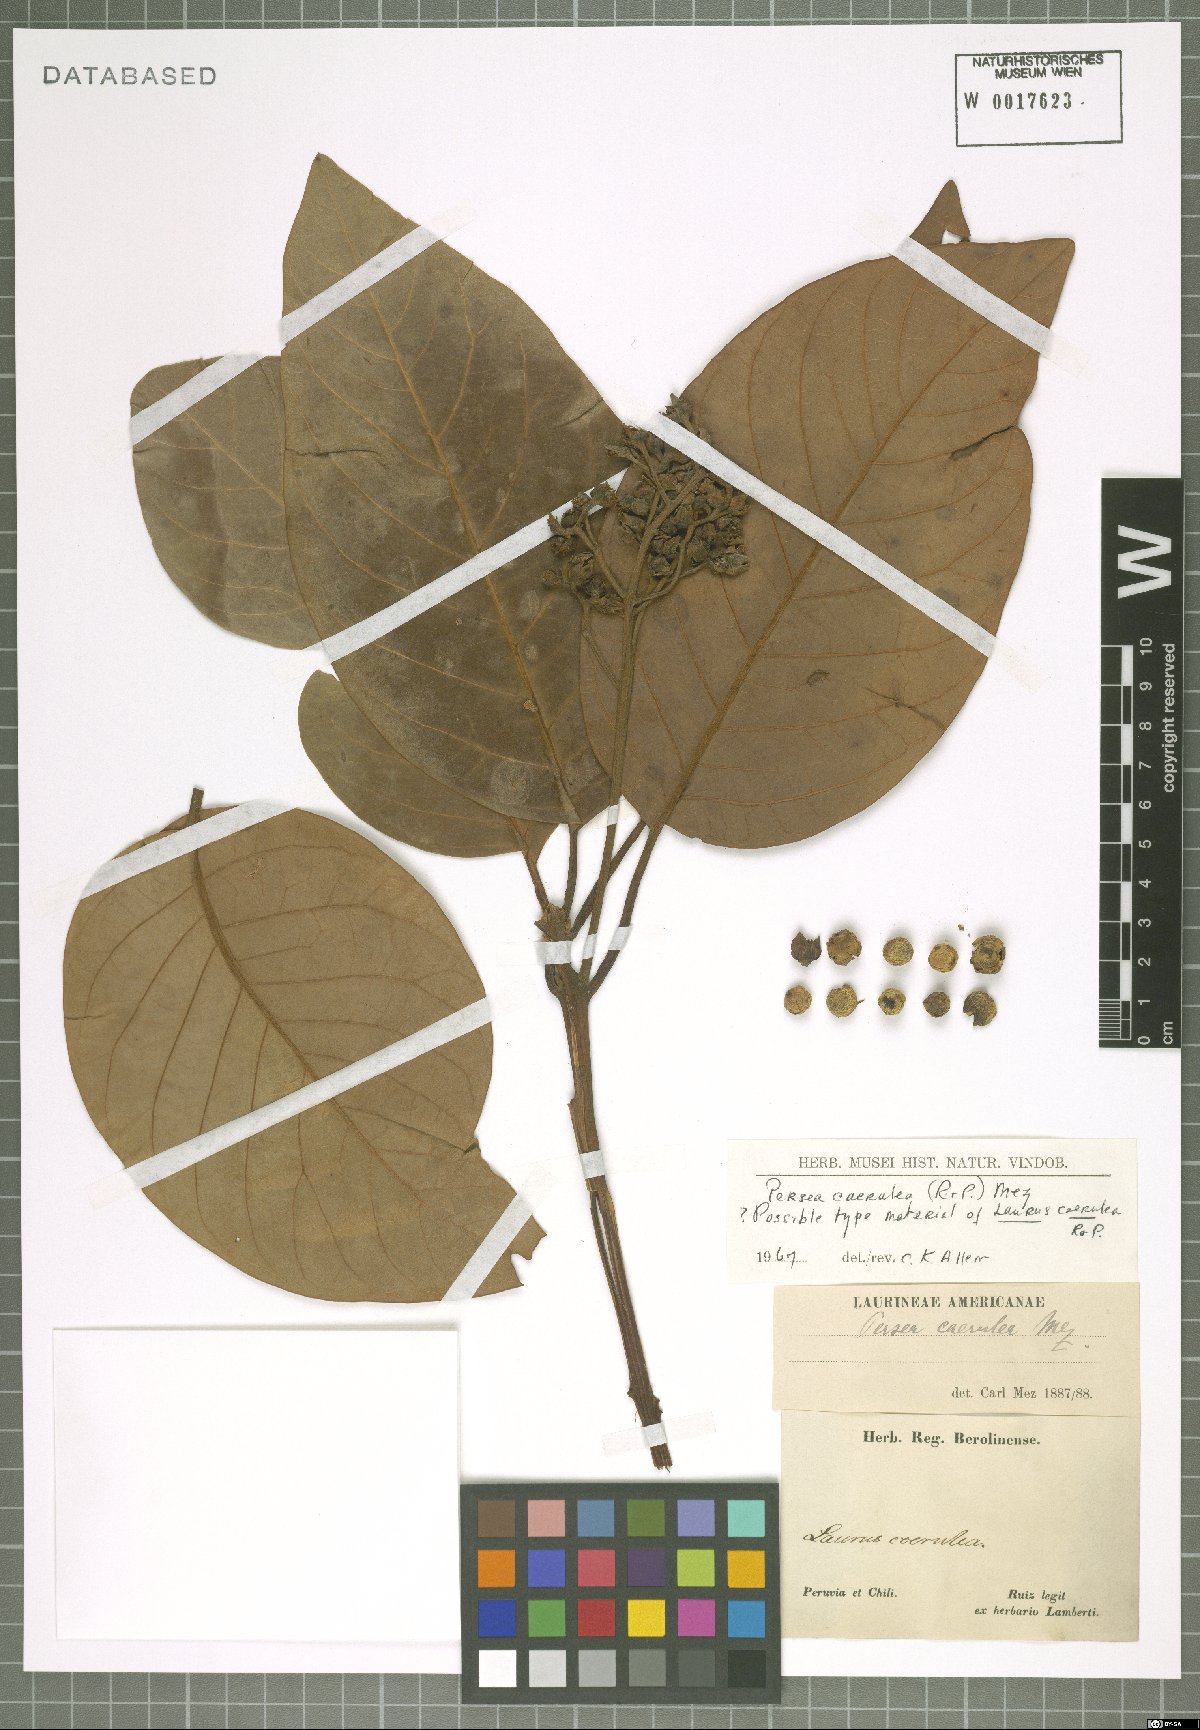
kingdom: Plantae
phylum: Tracheophyta
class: Magnoliopsida
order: Laurales
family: Lauraceae
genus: Persea
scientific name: Persea caerulea
